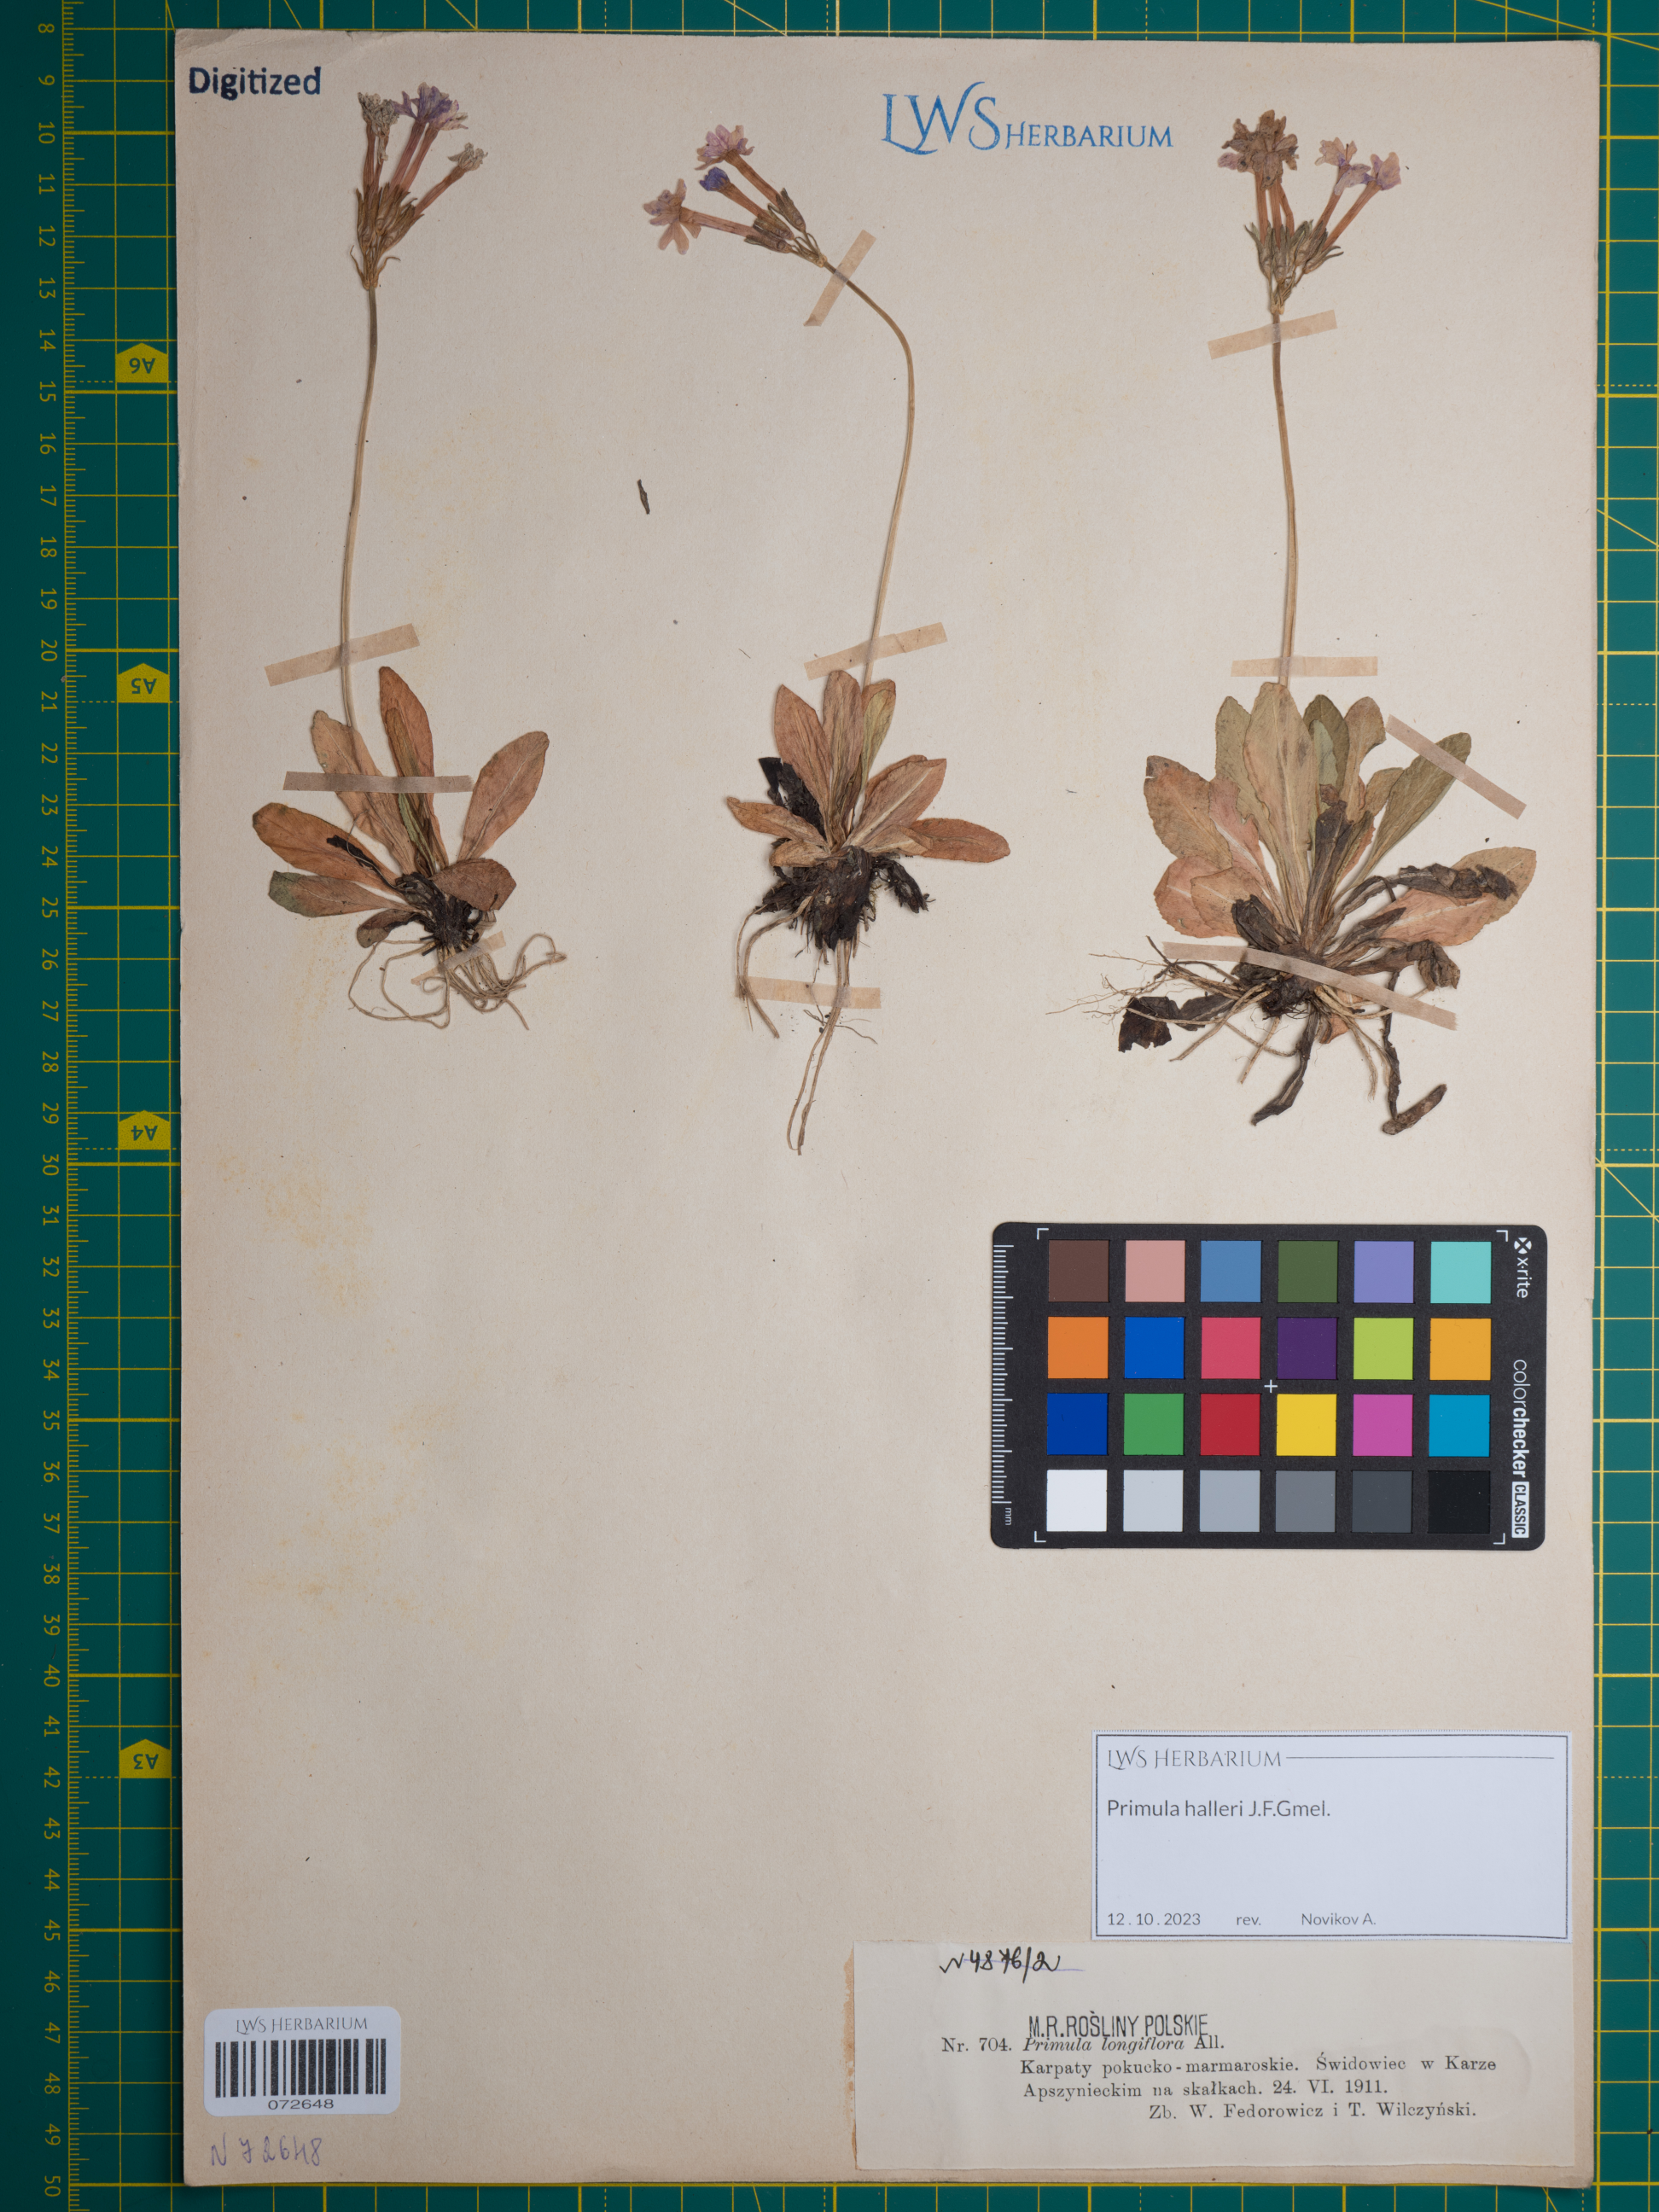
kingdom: Plantae
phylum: Tracheophyta
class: Magnoliopsida
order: Ericales
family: Primulaceae
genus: Primula
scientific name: Primula halleri
